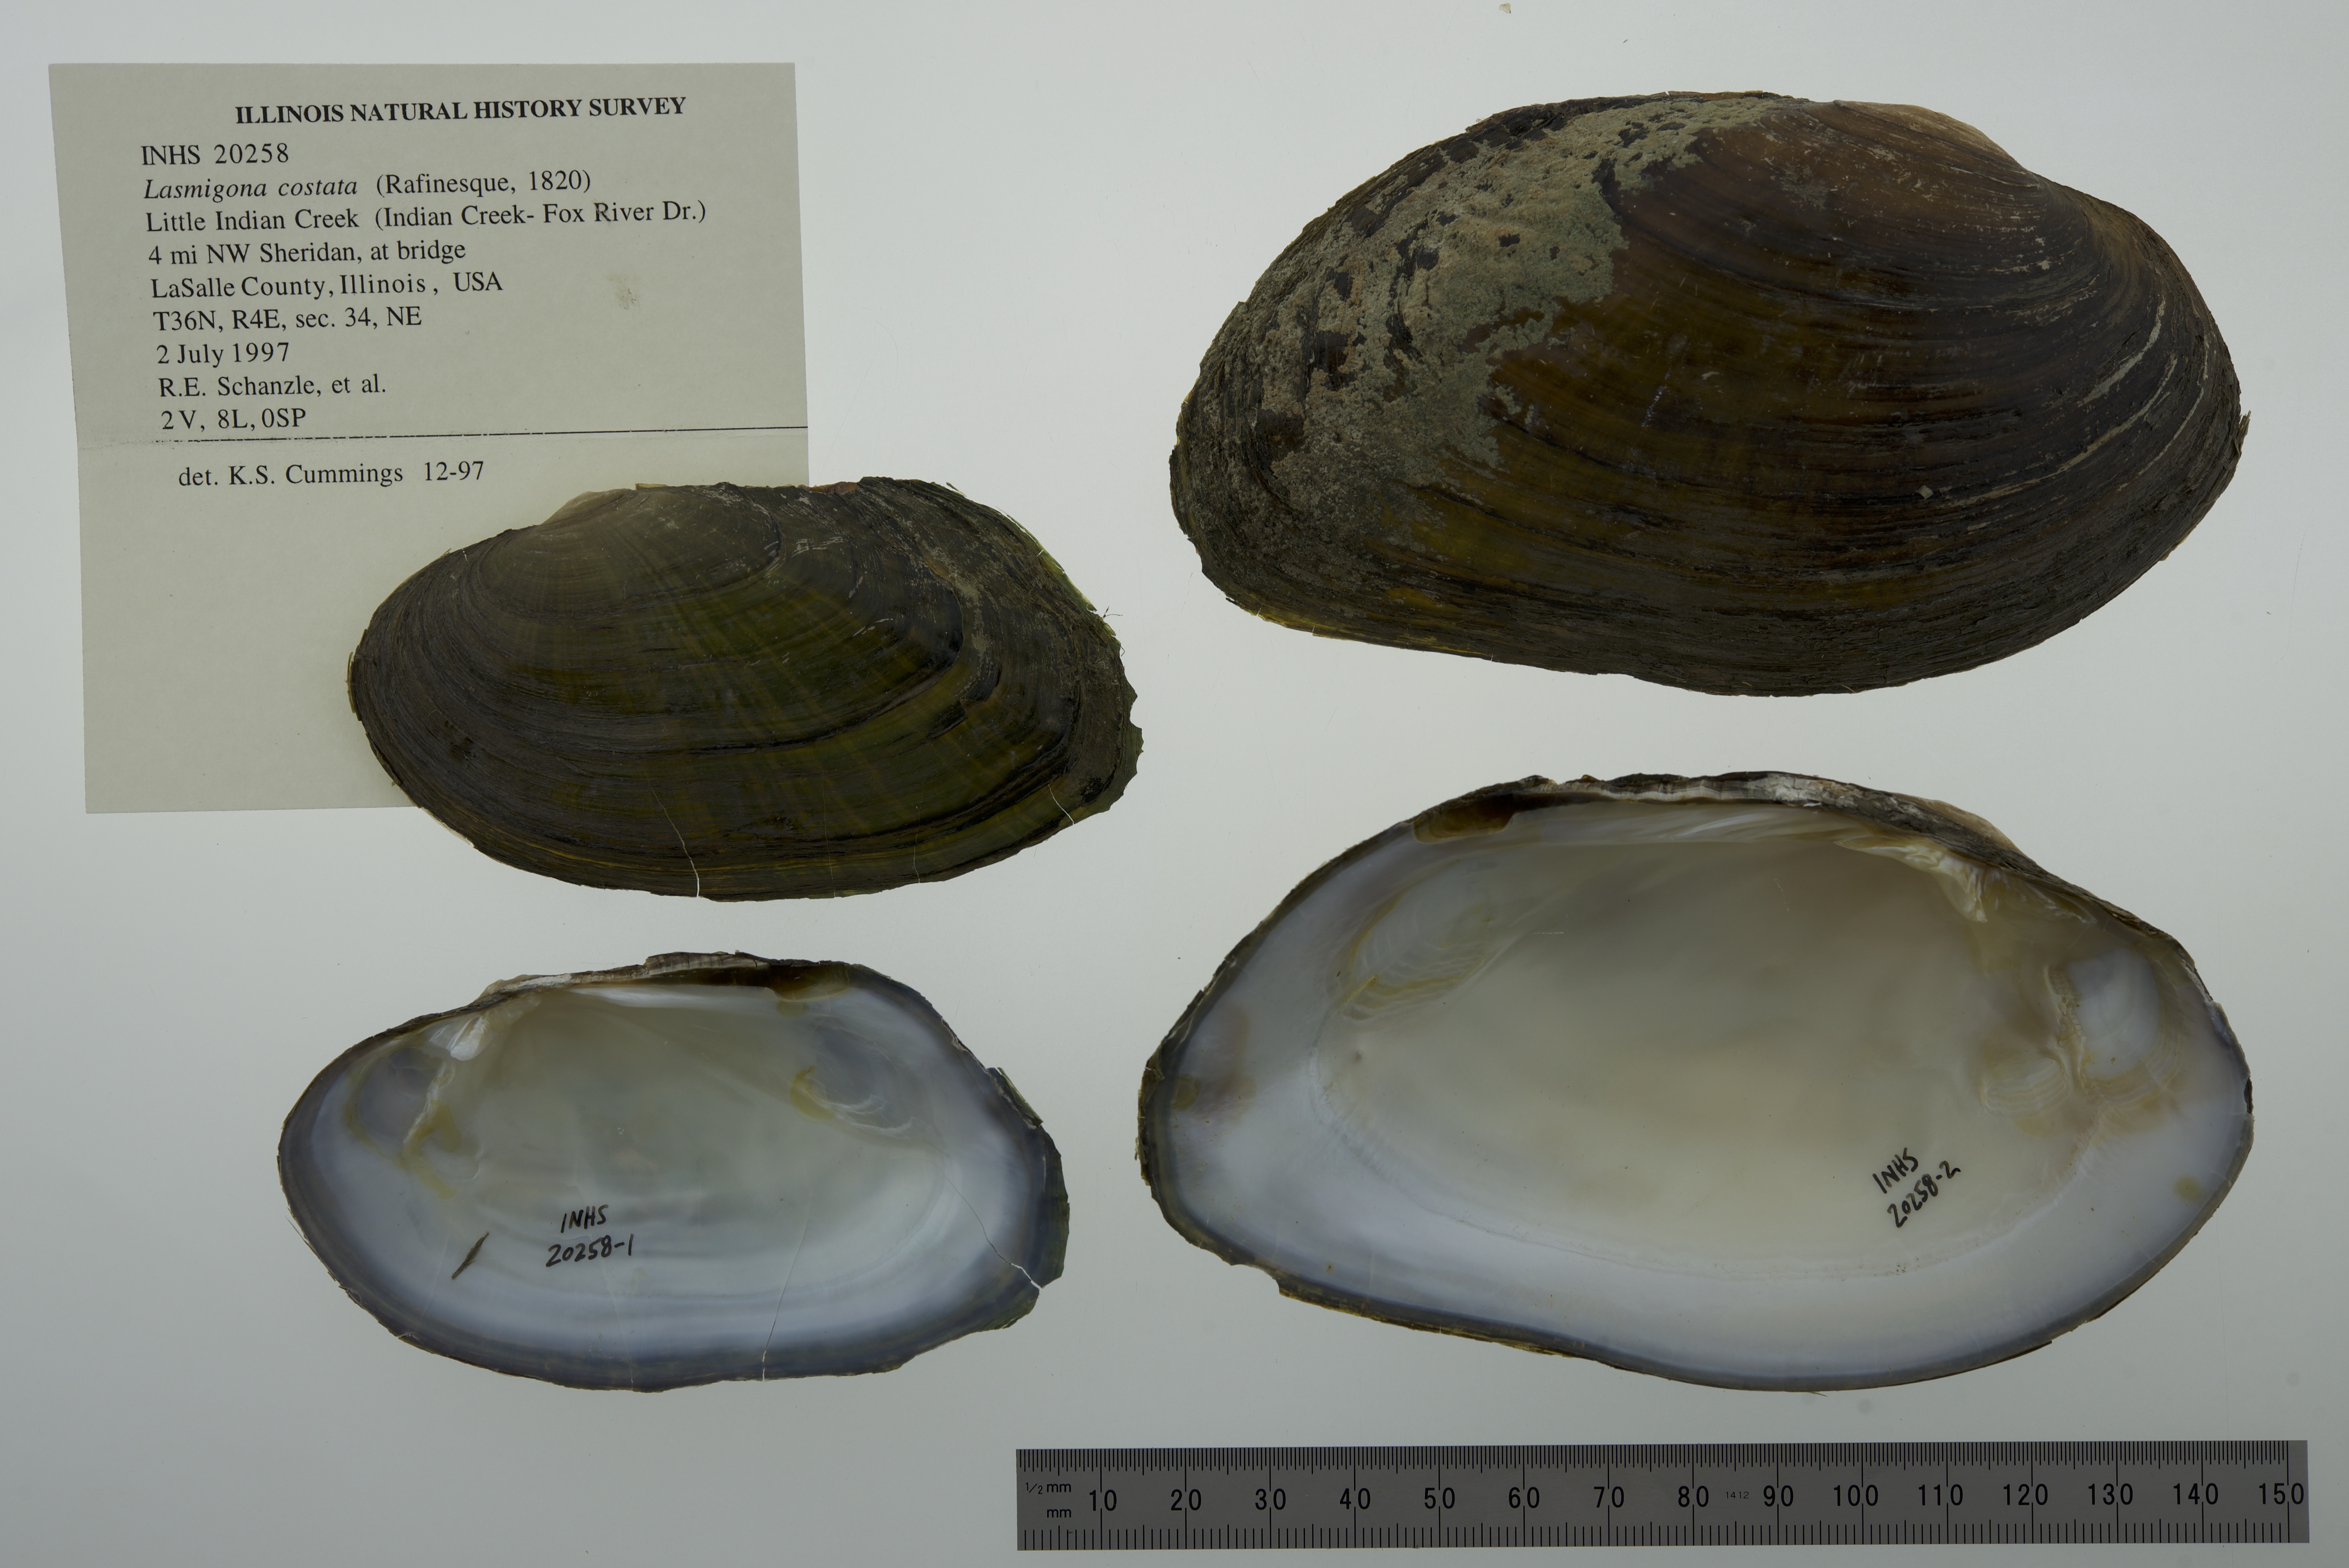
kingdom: Animalia
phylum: Mollusca
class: Bivalvia
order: Unionida
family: Unionidae
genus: Lasmigona
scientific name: Lasmigona costata
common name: Flutedshell
